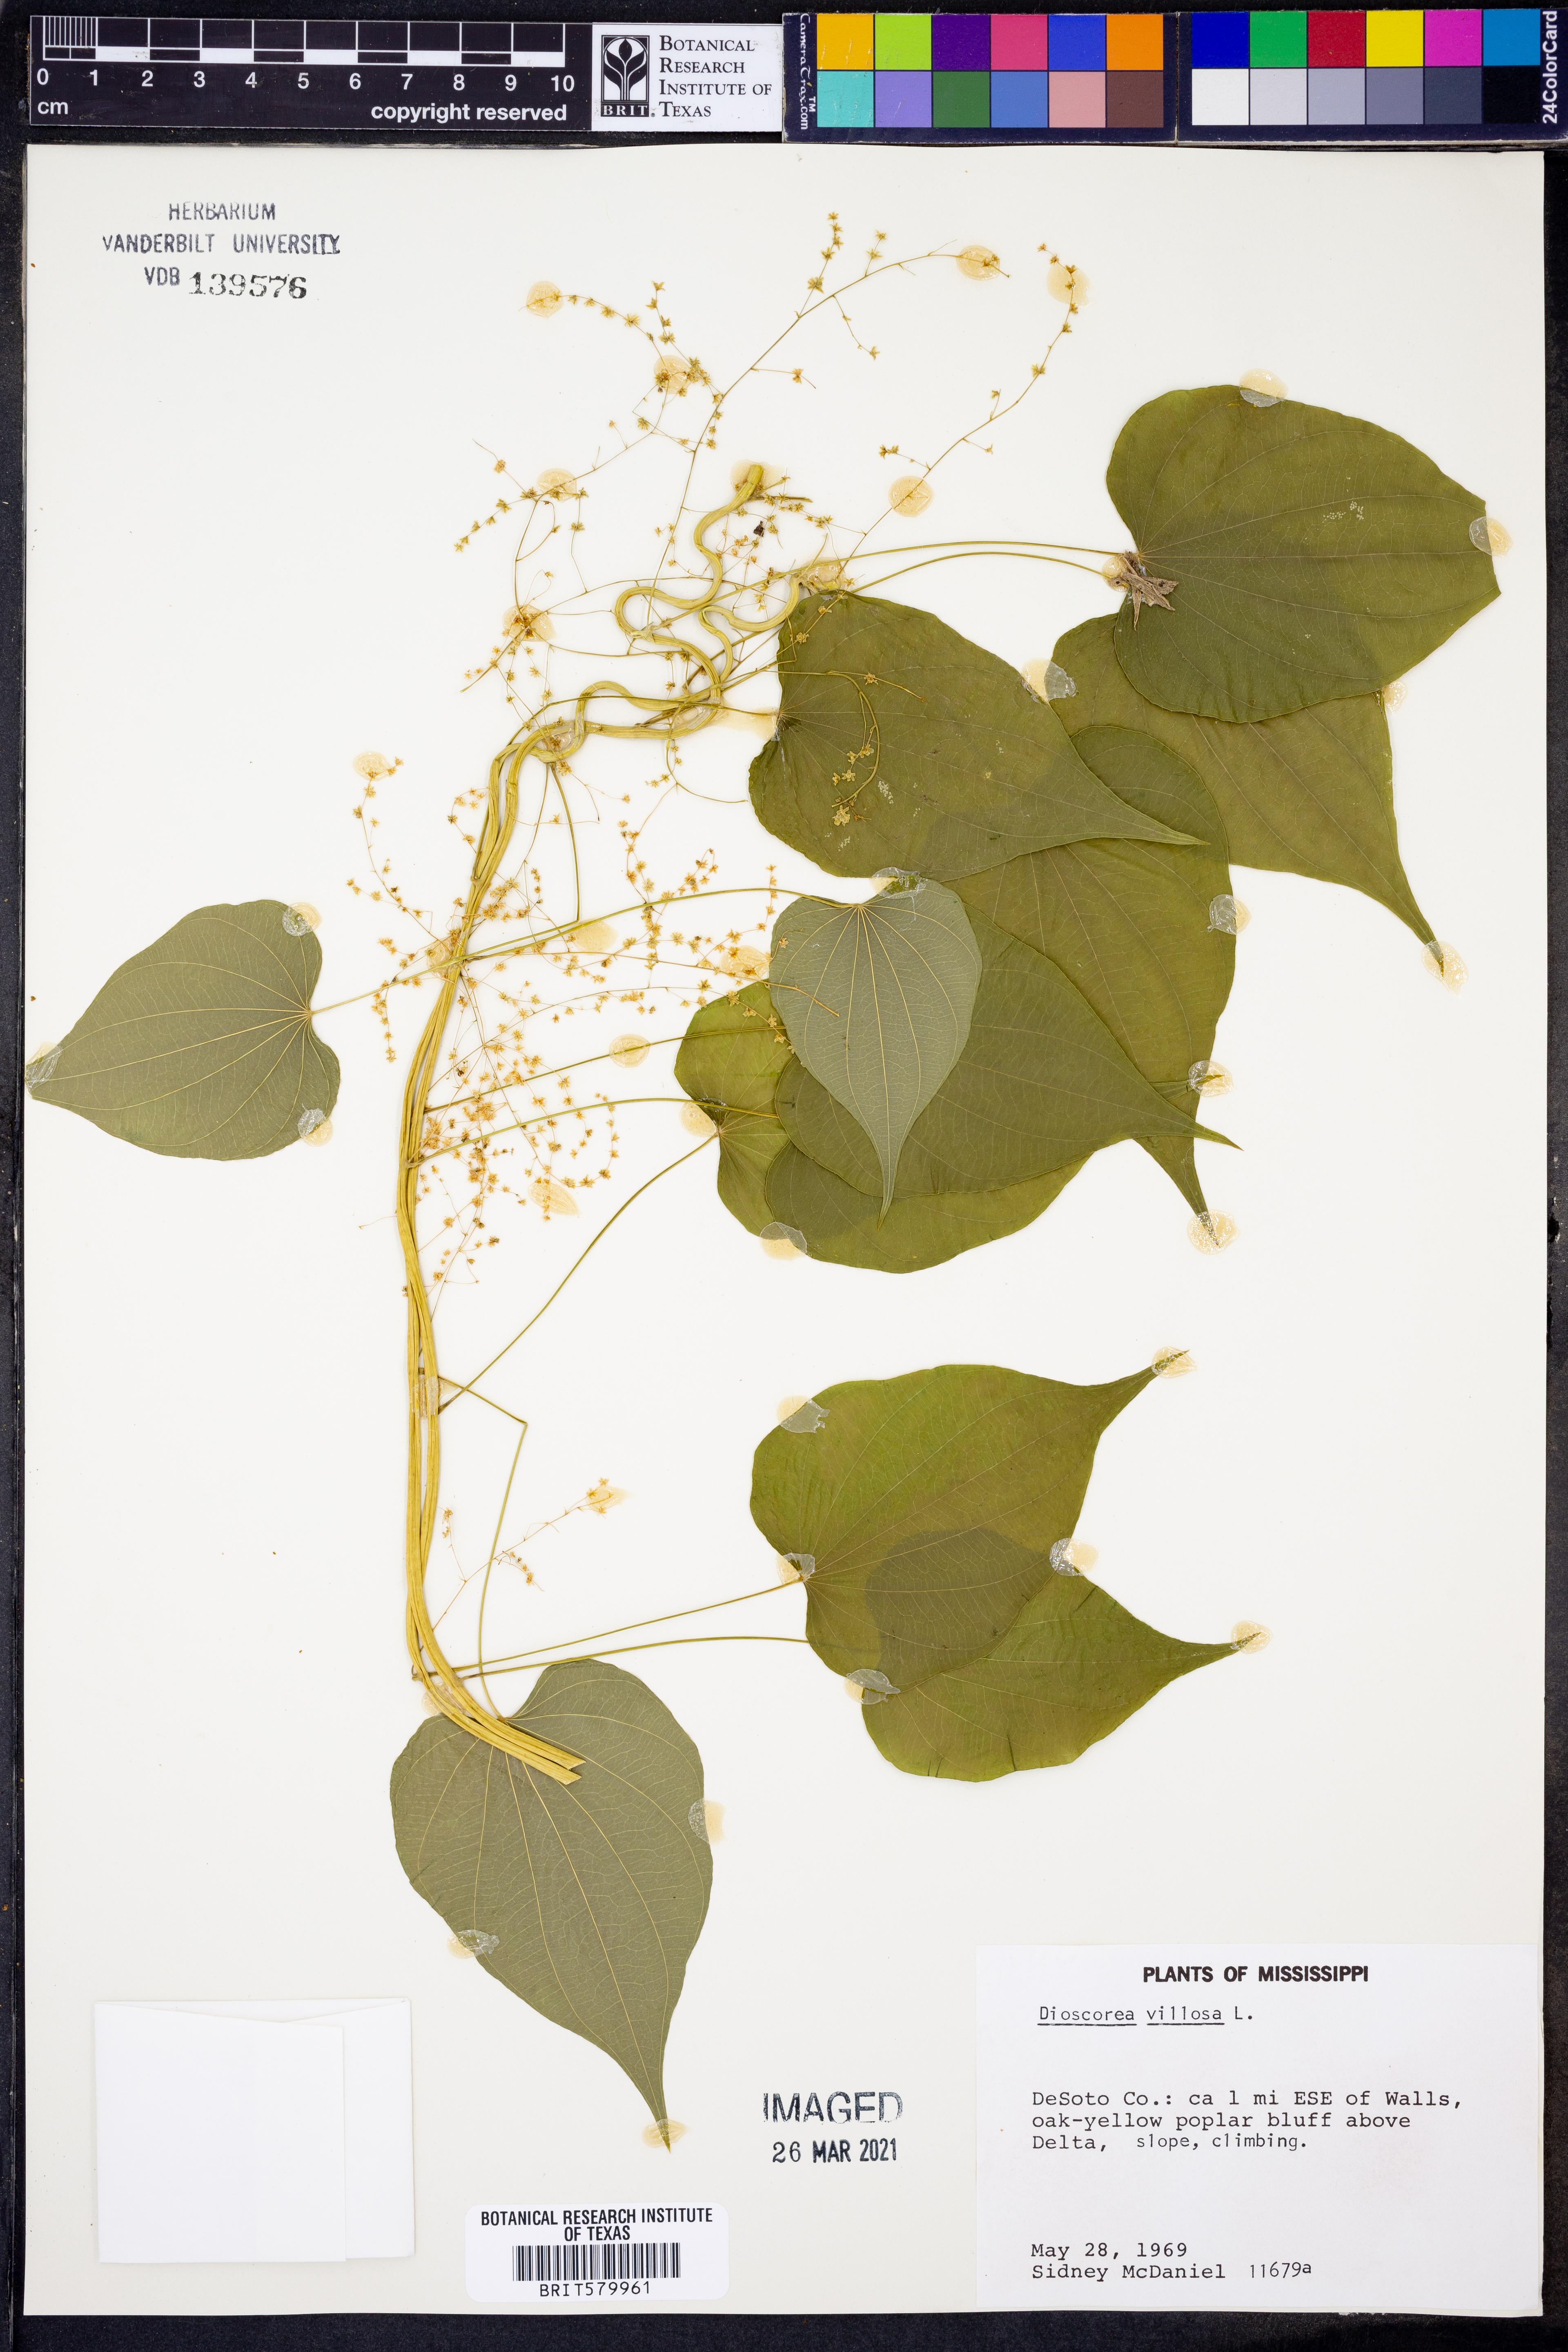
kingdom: Plantae
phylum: Tracheophyta
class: Liliopsida
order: Dioscoreales
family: Dioscoreaceae
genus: Dioscorea
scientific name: Dioscorea villosa
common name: Wild yam
